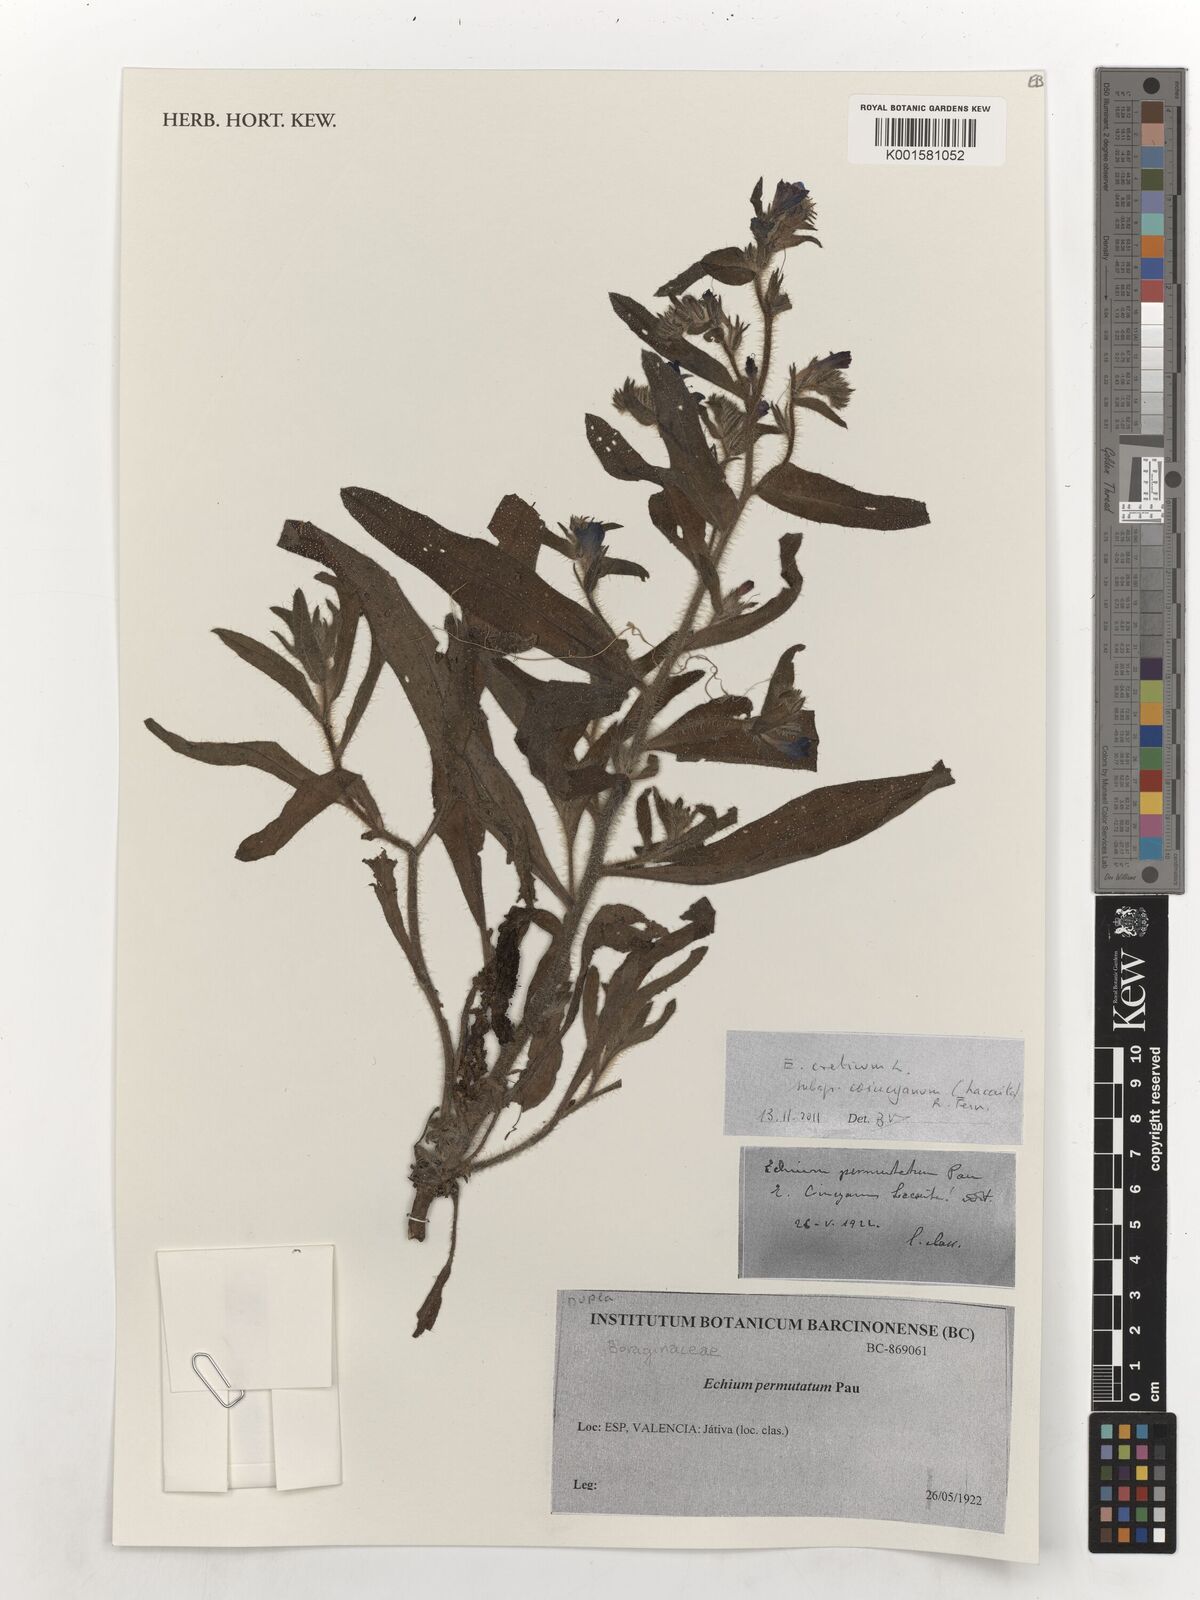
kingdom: Plantae
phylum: Tracheophyta
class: Magnoliopsida
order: Boraginales
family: Boraginaceae
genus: Echium
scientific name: Echium creticum
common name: Cretan viper's bugloss
